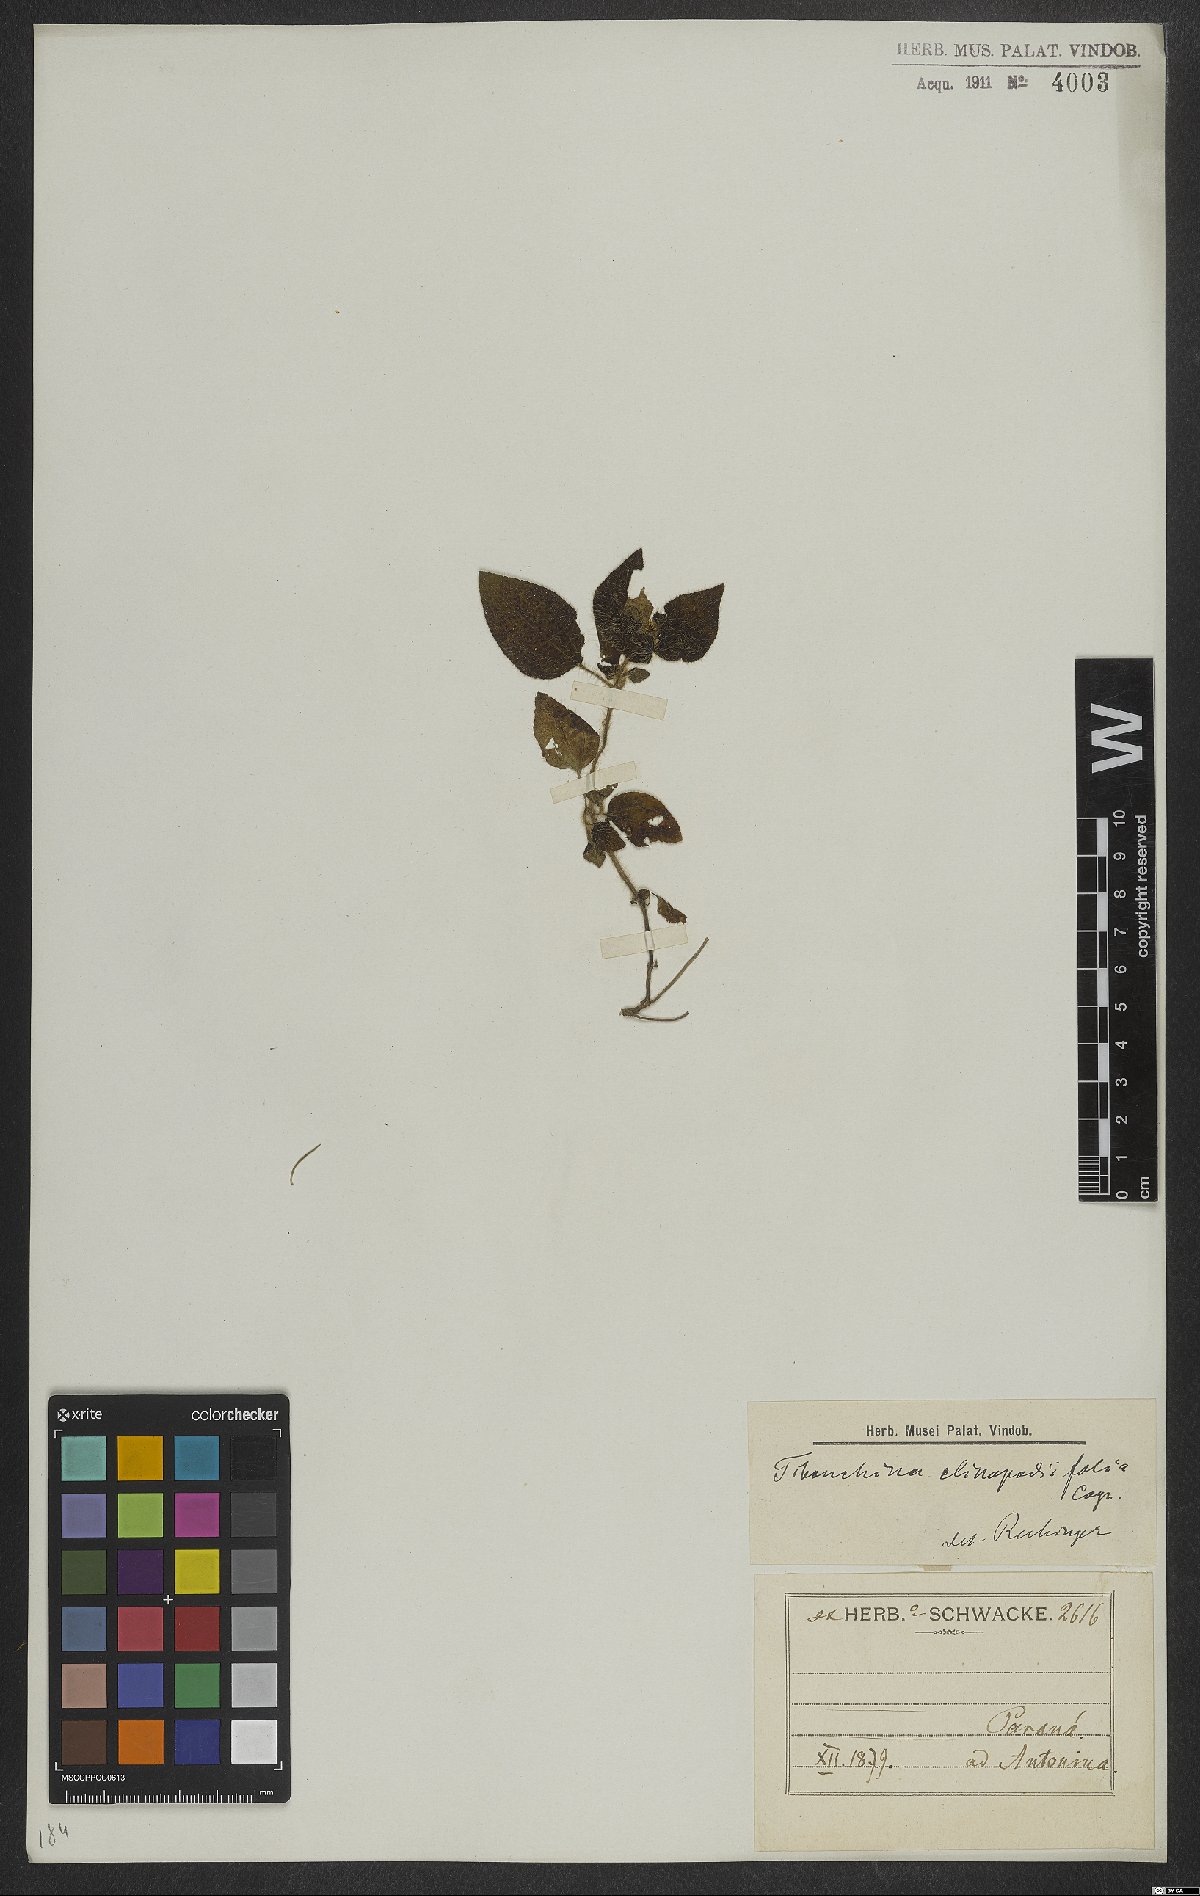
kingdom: Plantae
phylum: Tracheophyta
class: Magnoliopsida
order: Myrtales
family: Melastomataceae
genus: Chaetogastra
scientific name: Chaetogastra clinopodifolia
